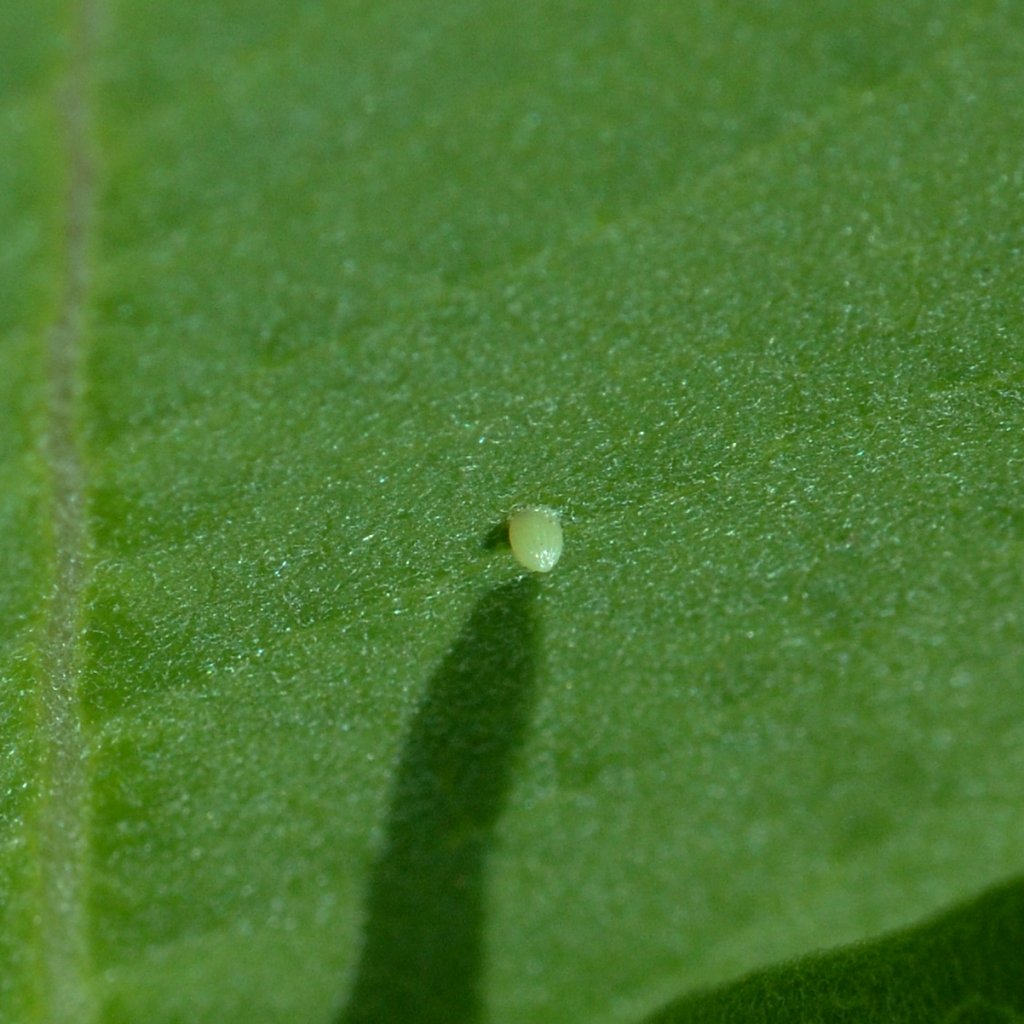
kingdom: Animalia
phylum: Arthropoda
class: Insecta
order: Lepidoptera
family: Nymphalidae
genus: Danaus
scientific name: Danaus plexippus
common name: Monarch
